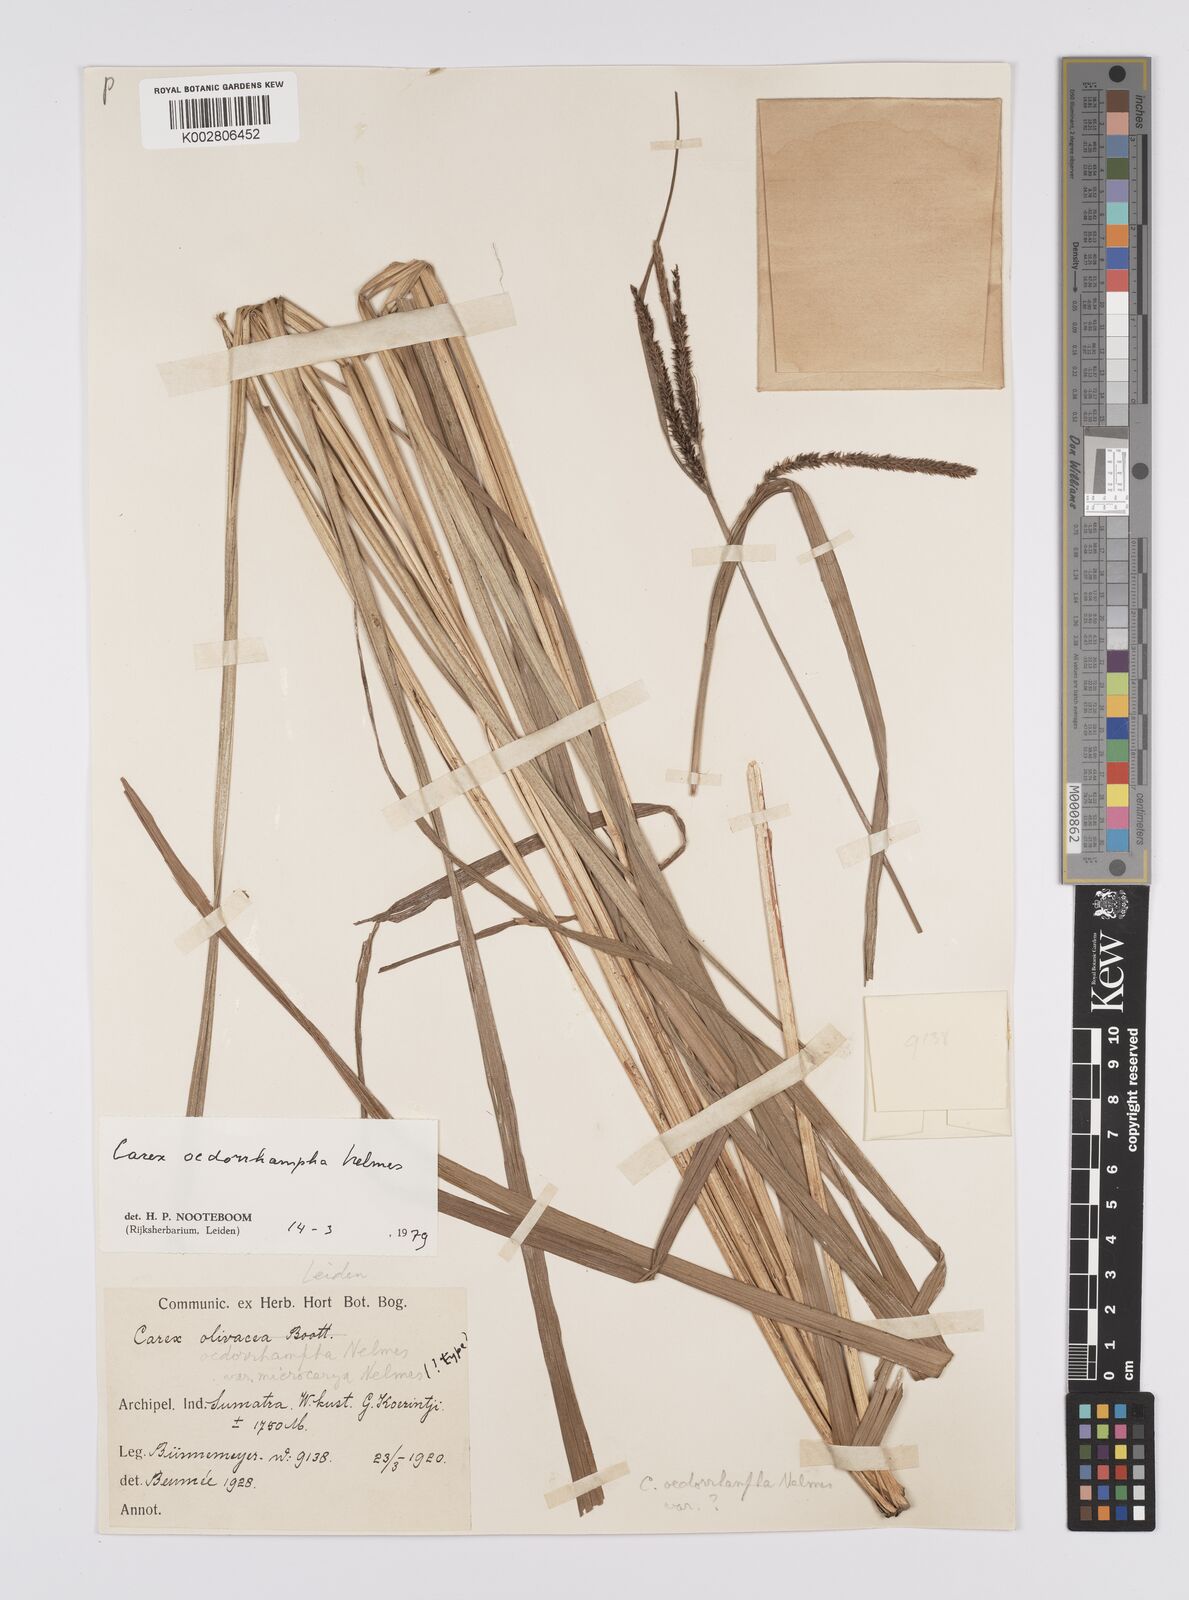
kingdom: Plantae
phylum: Tracheophyta
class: Liliopsida
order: Poales
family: Cyperaceae
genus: Carex
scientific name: Carex tumida
